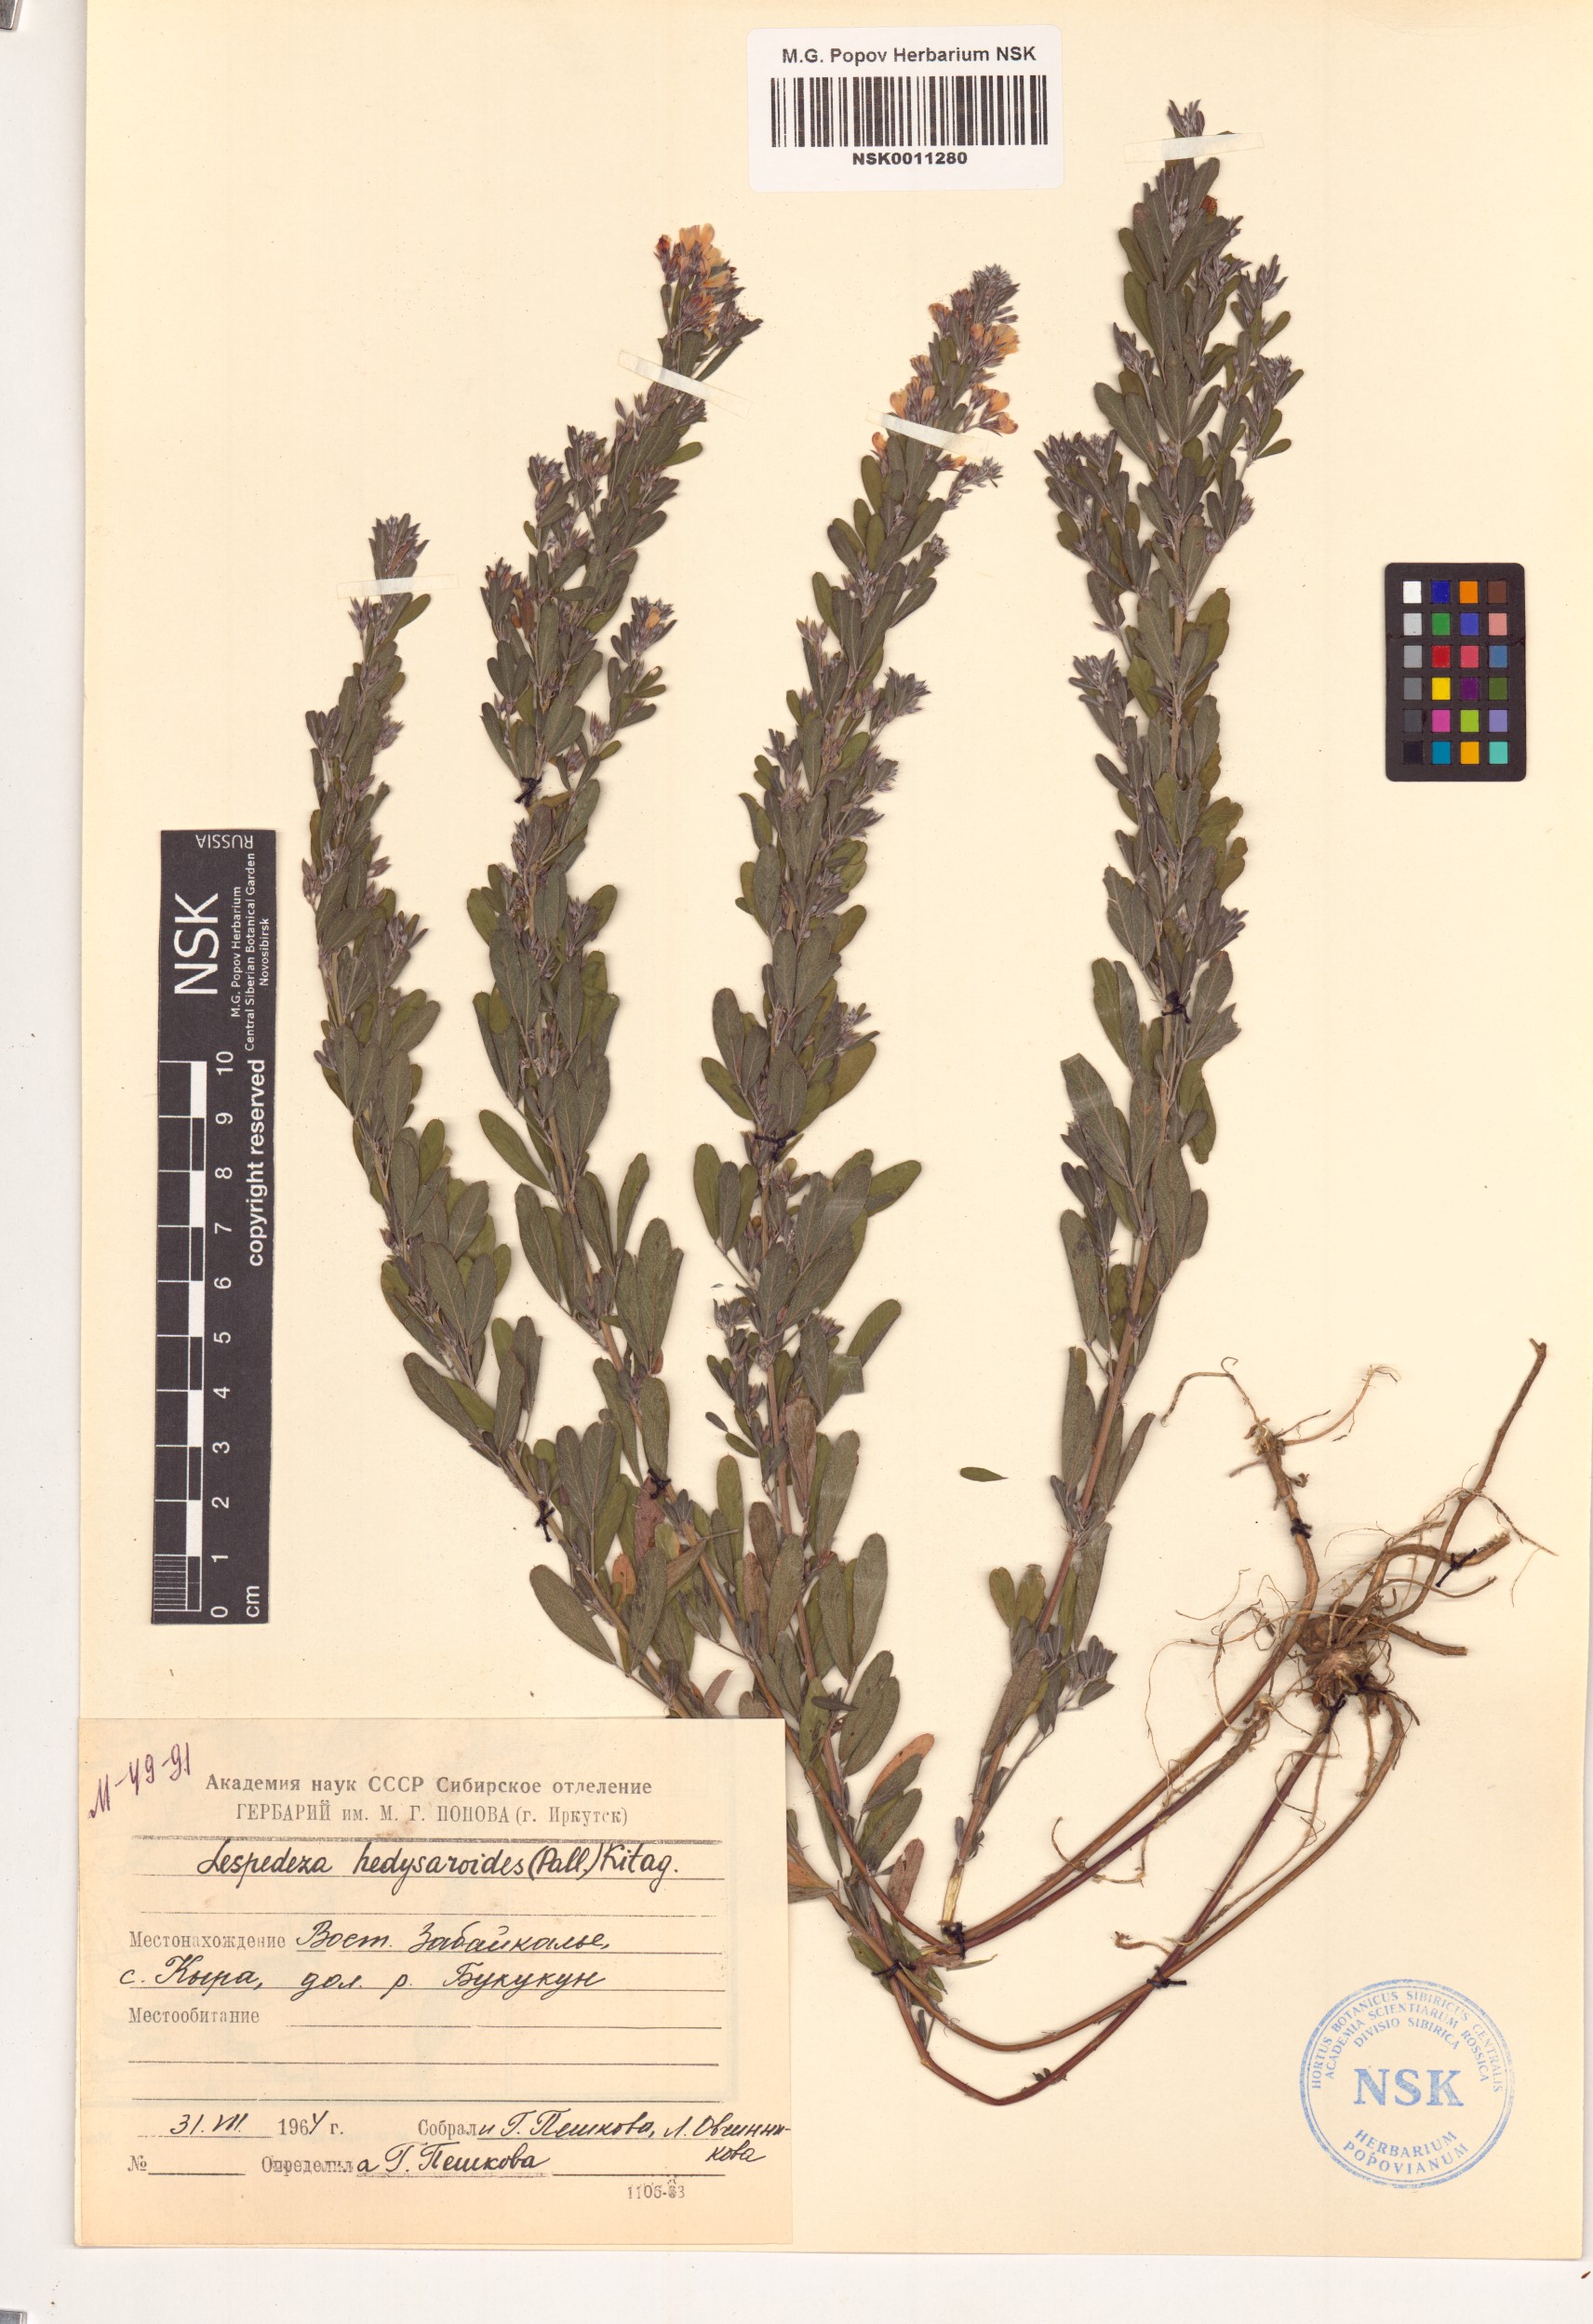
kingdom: Plantae
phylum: Tracheophyta
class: Magnoliopsida
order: Fabales
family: Fabaceae
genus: Lespedeza
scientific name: Lespedeza juncea
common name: Siberian lespedeza
